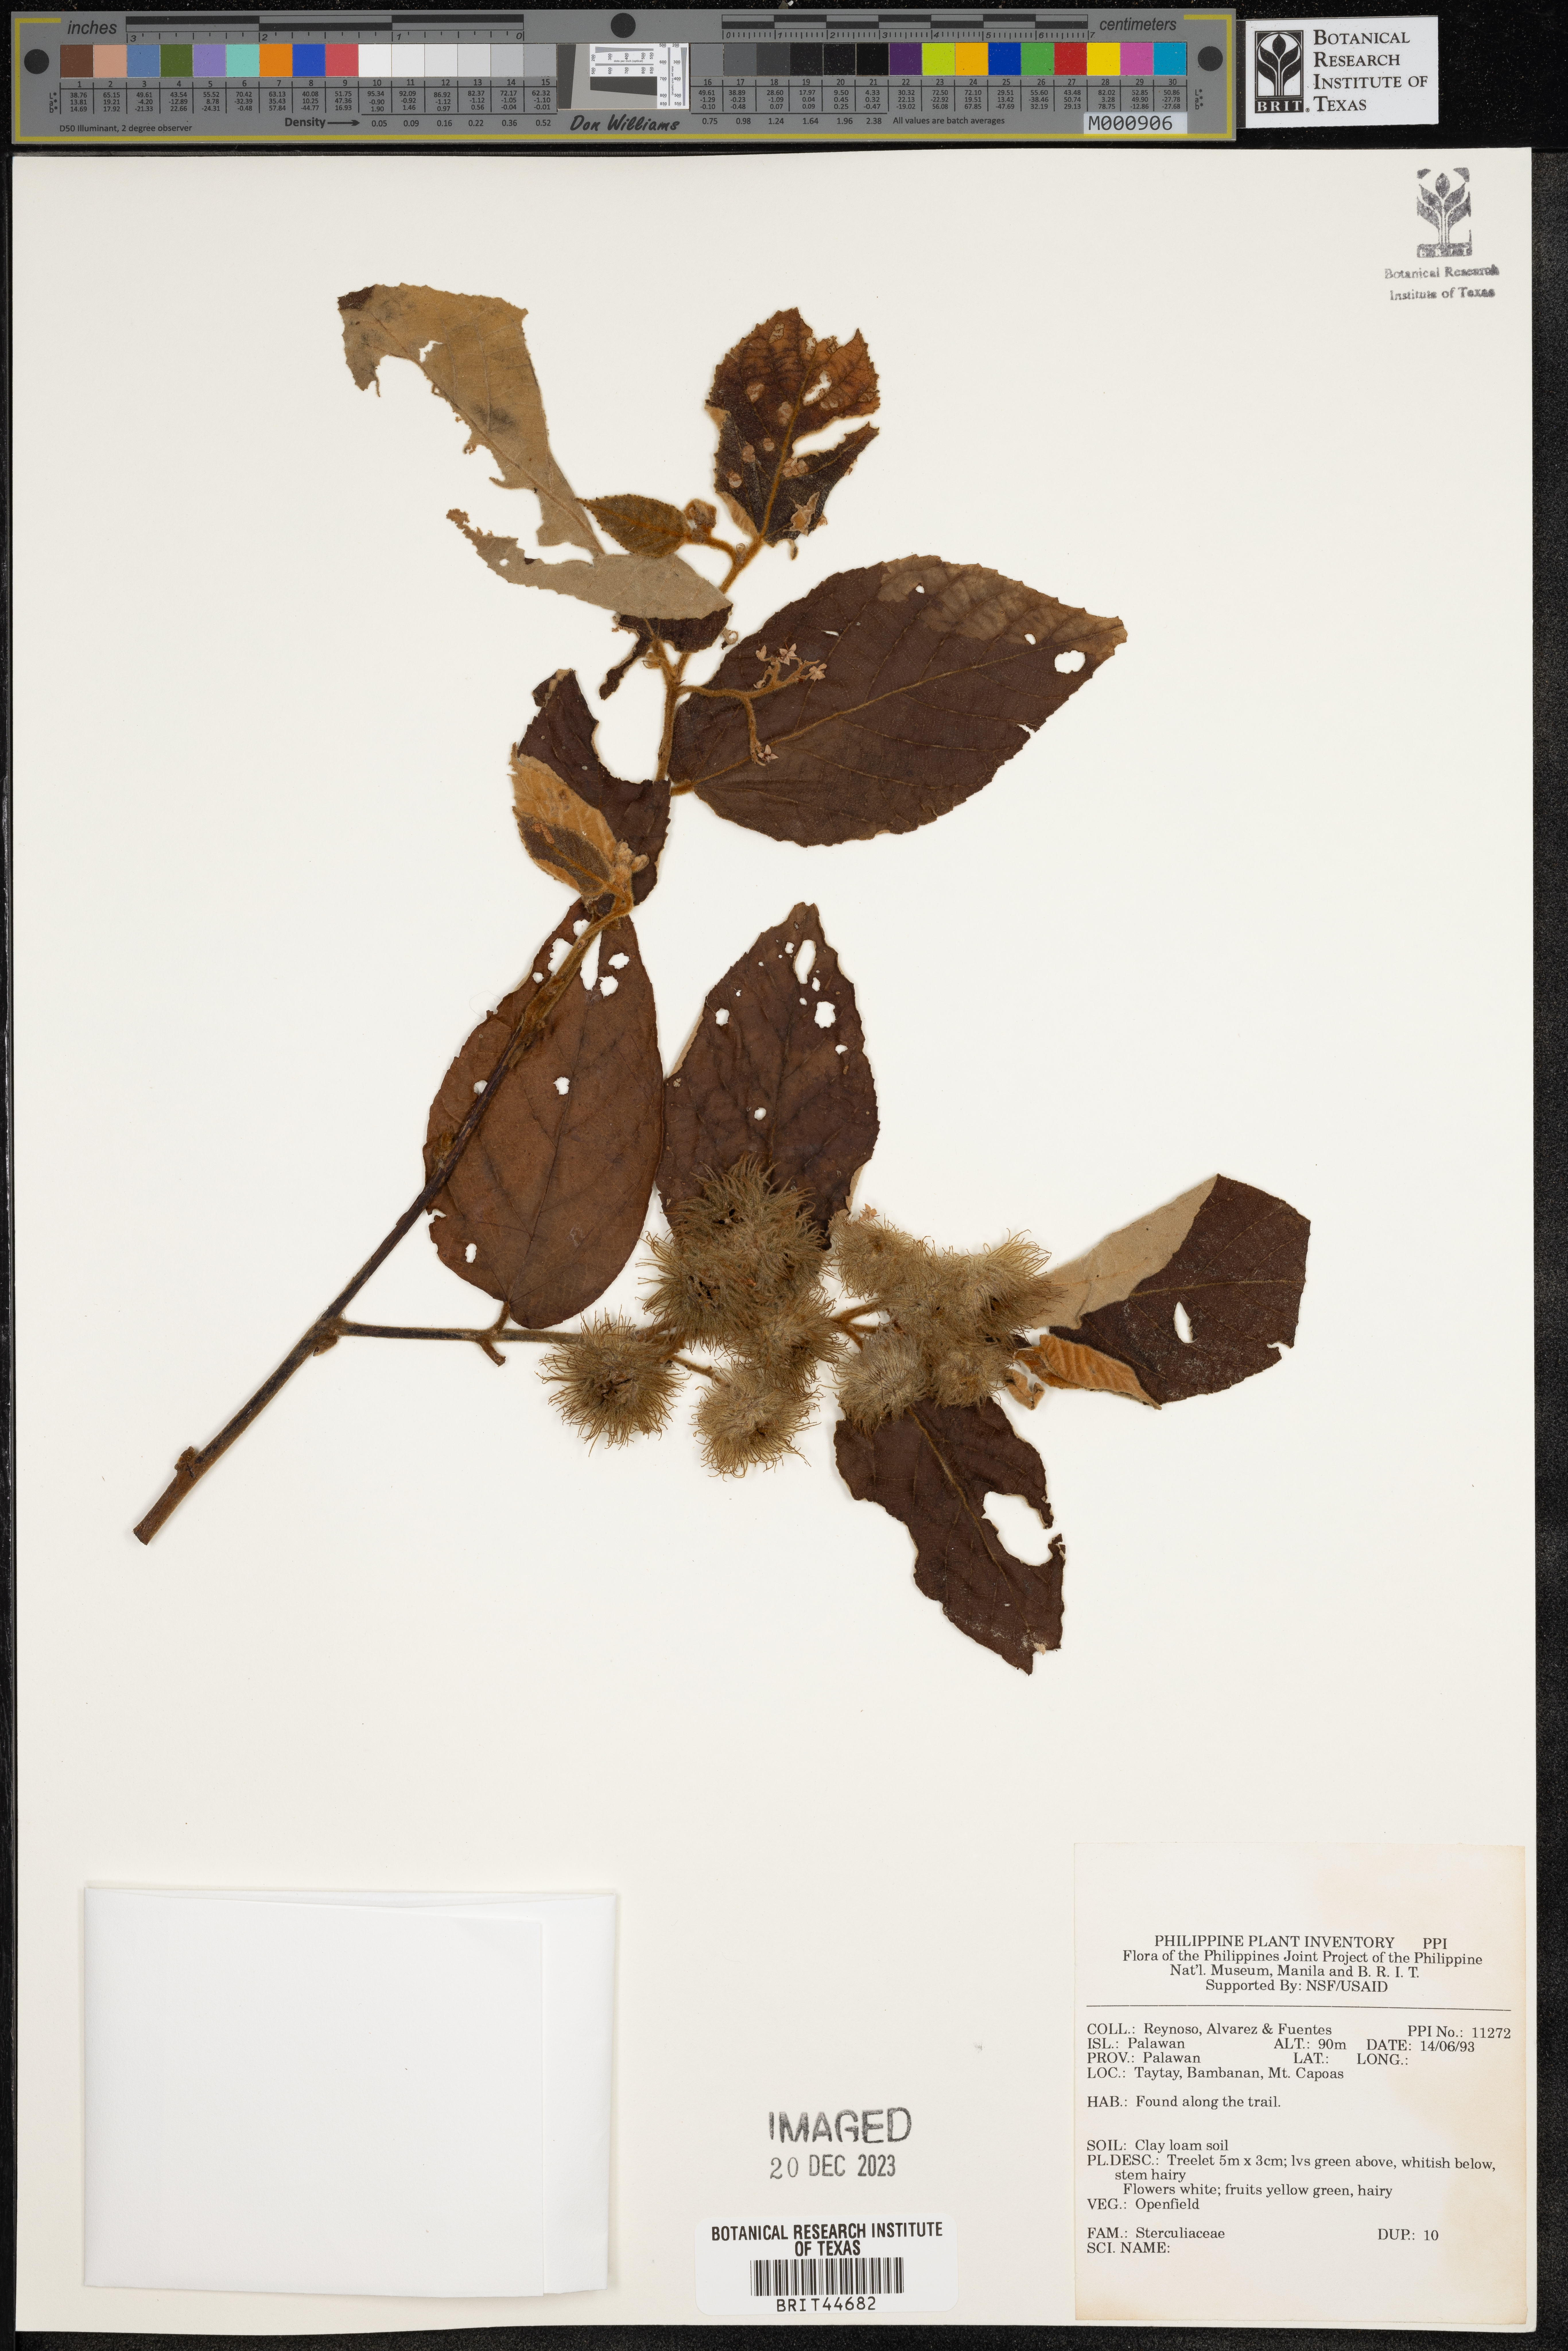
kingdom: Plantae
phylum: Tracheophyta
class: Magnoliopsida
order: Malvales
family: Sterculiaceae
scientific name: Sterculiaceae
